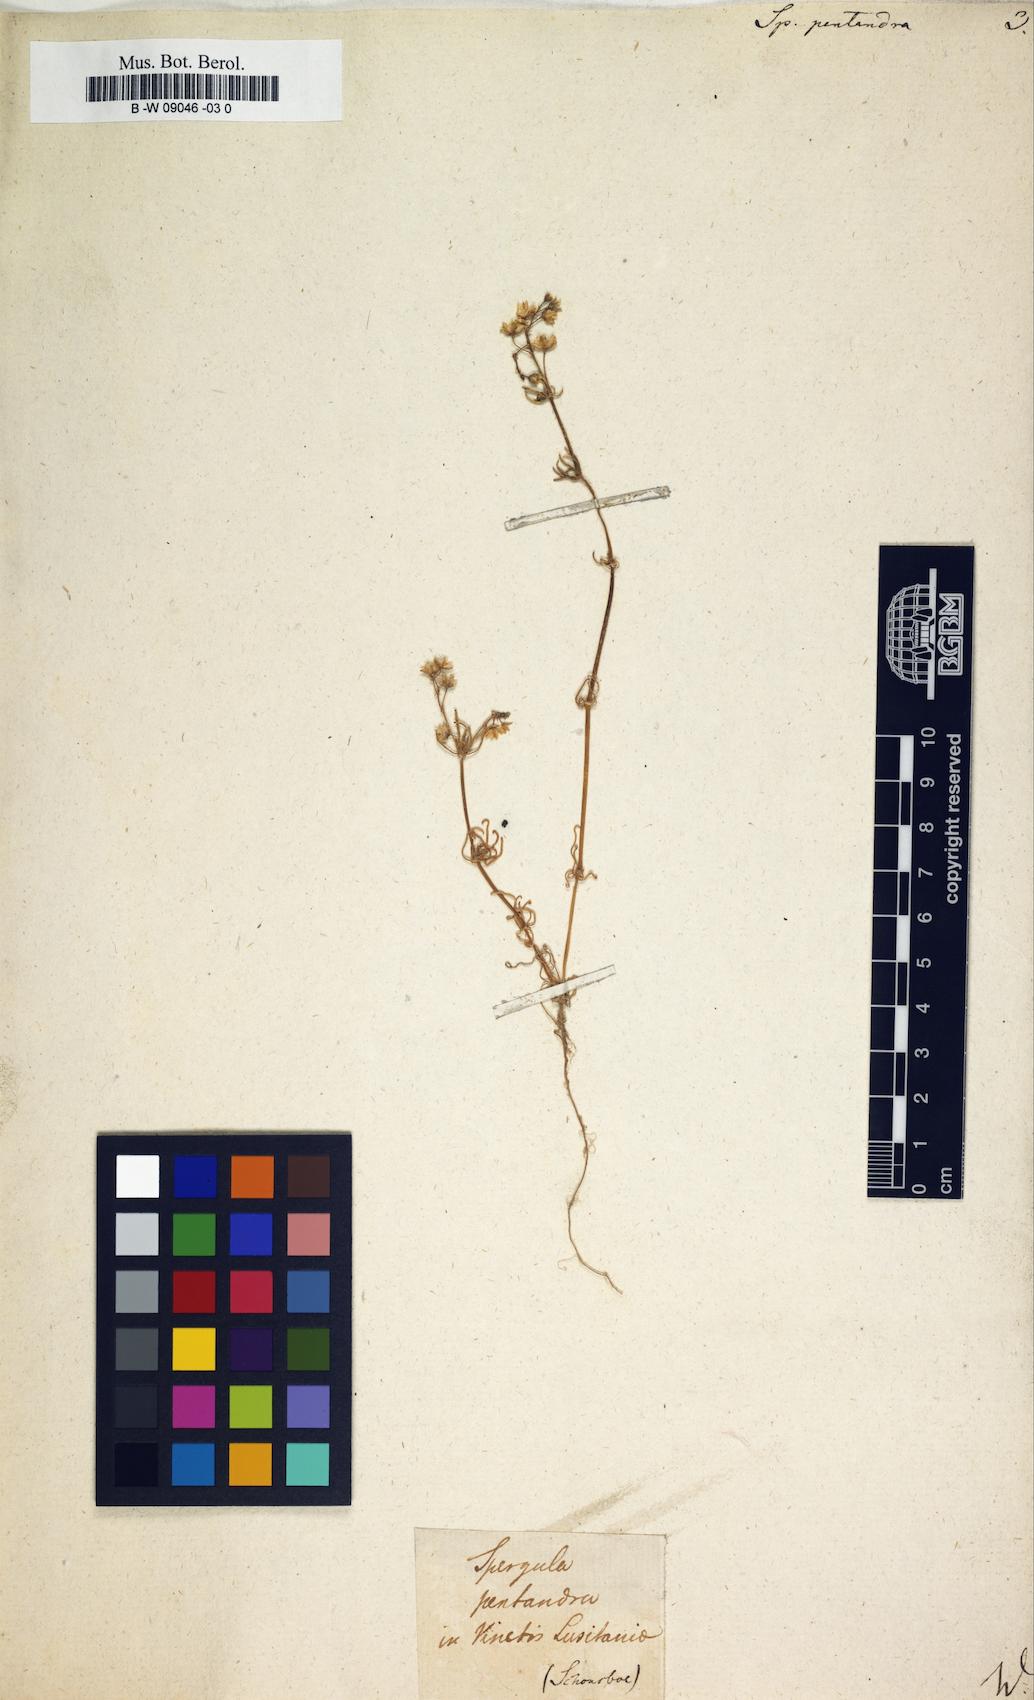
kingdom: Plantae
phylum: Tracheophyta
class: Magnoliopsida
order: Caryophyllales
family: Caryophyllaceae
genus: Spergula
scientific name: Spergula pentandra
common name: Wingstem spurry
